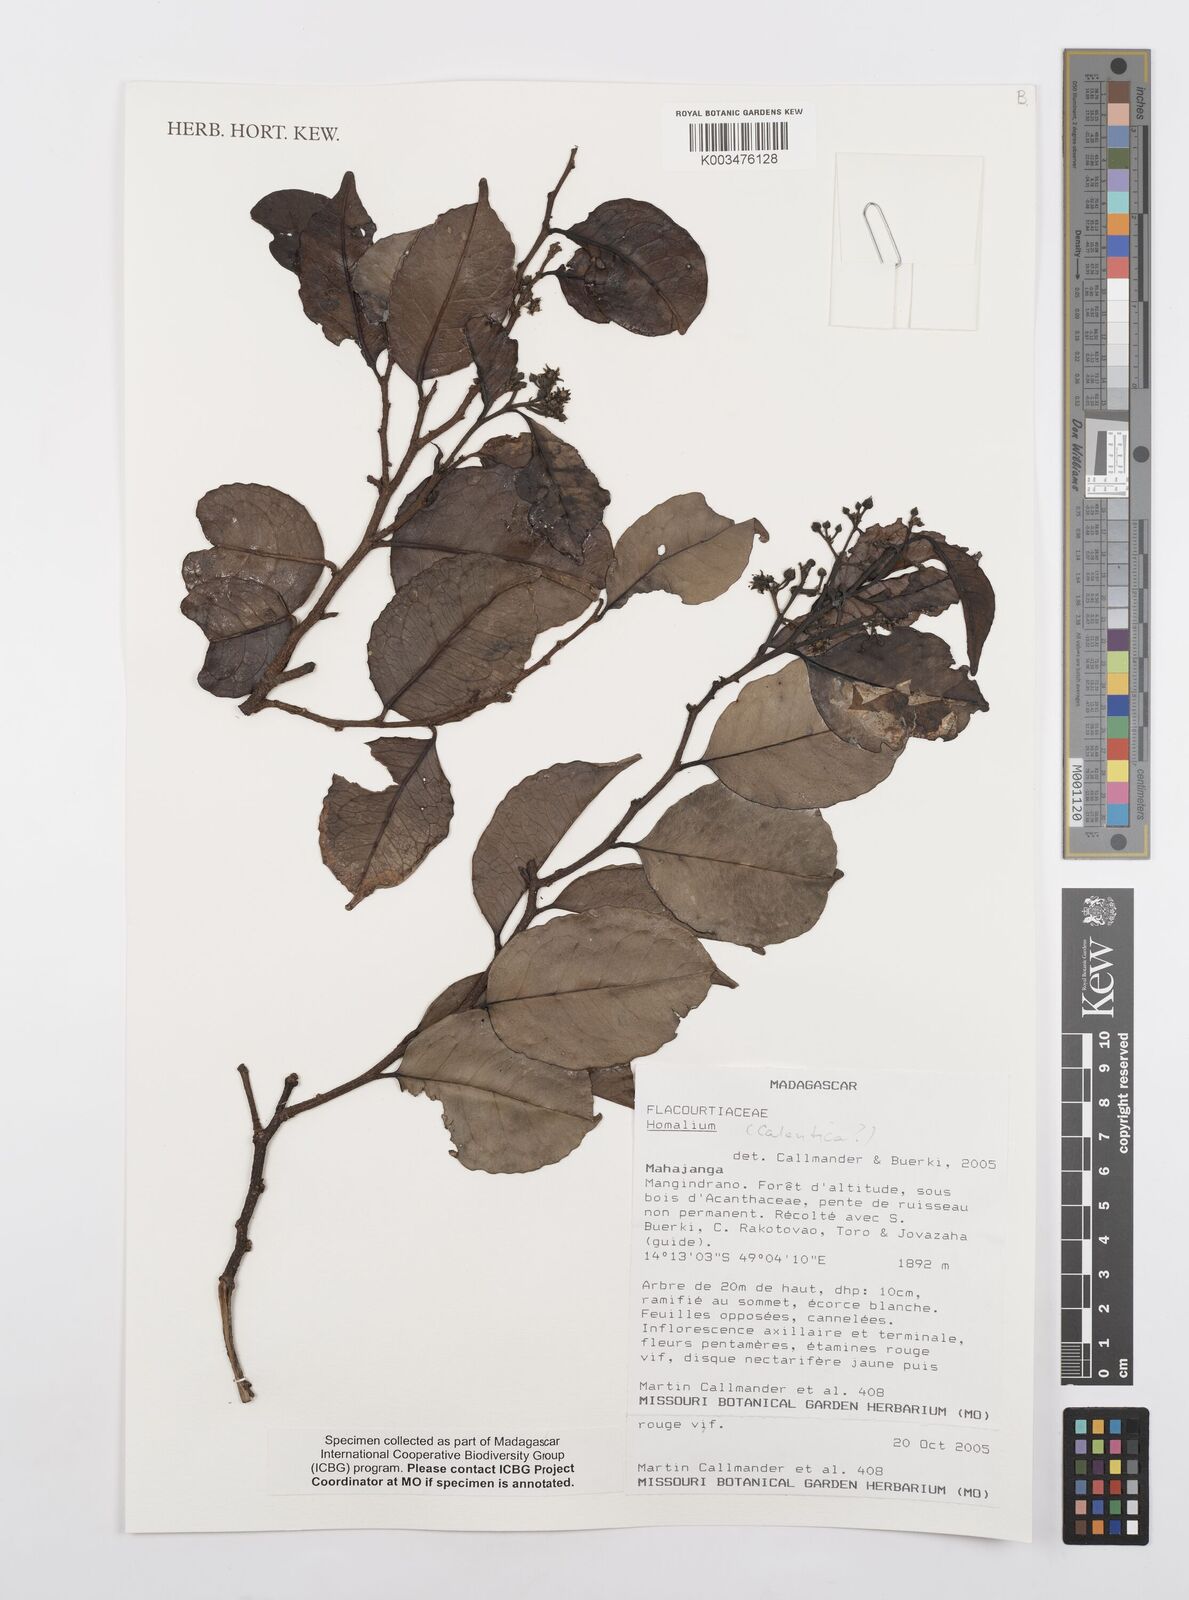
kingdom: Plantae
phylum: Tracheophyta
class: Magnoliopsida
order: Malpighiales
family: Salicaceae
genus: Homalium
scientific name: Homalium
